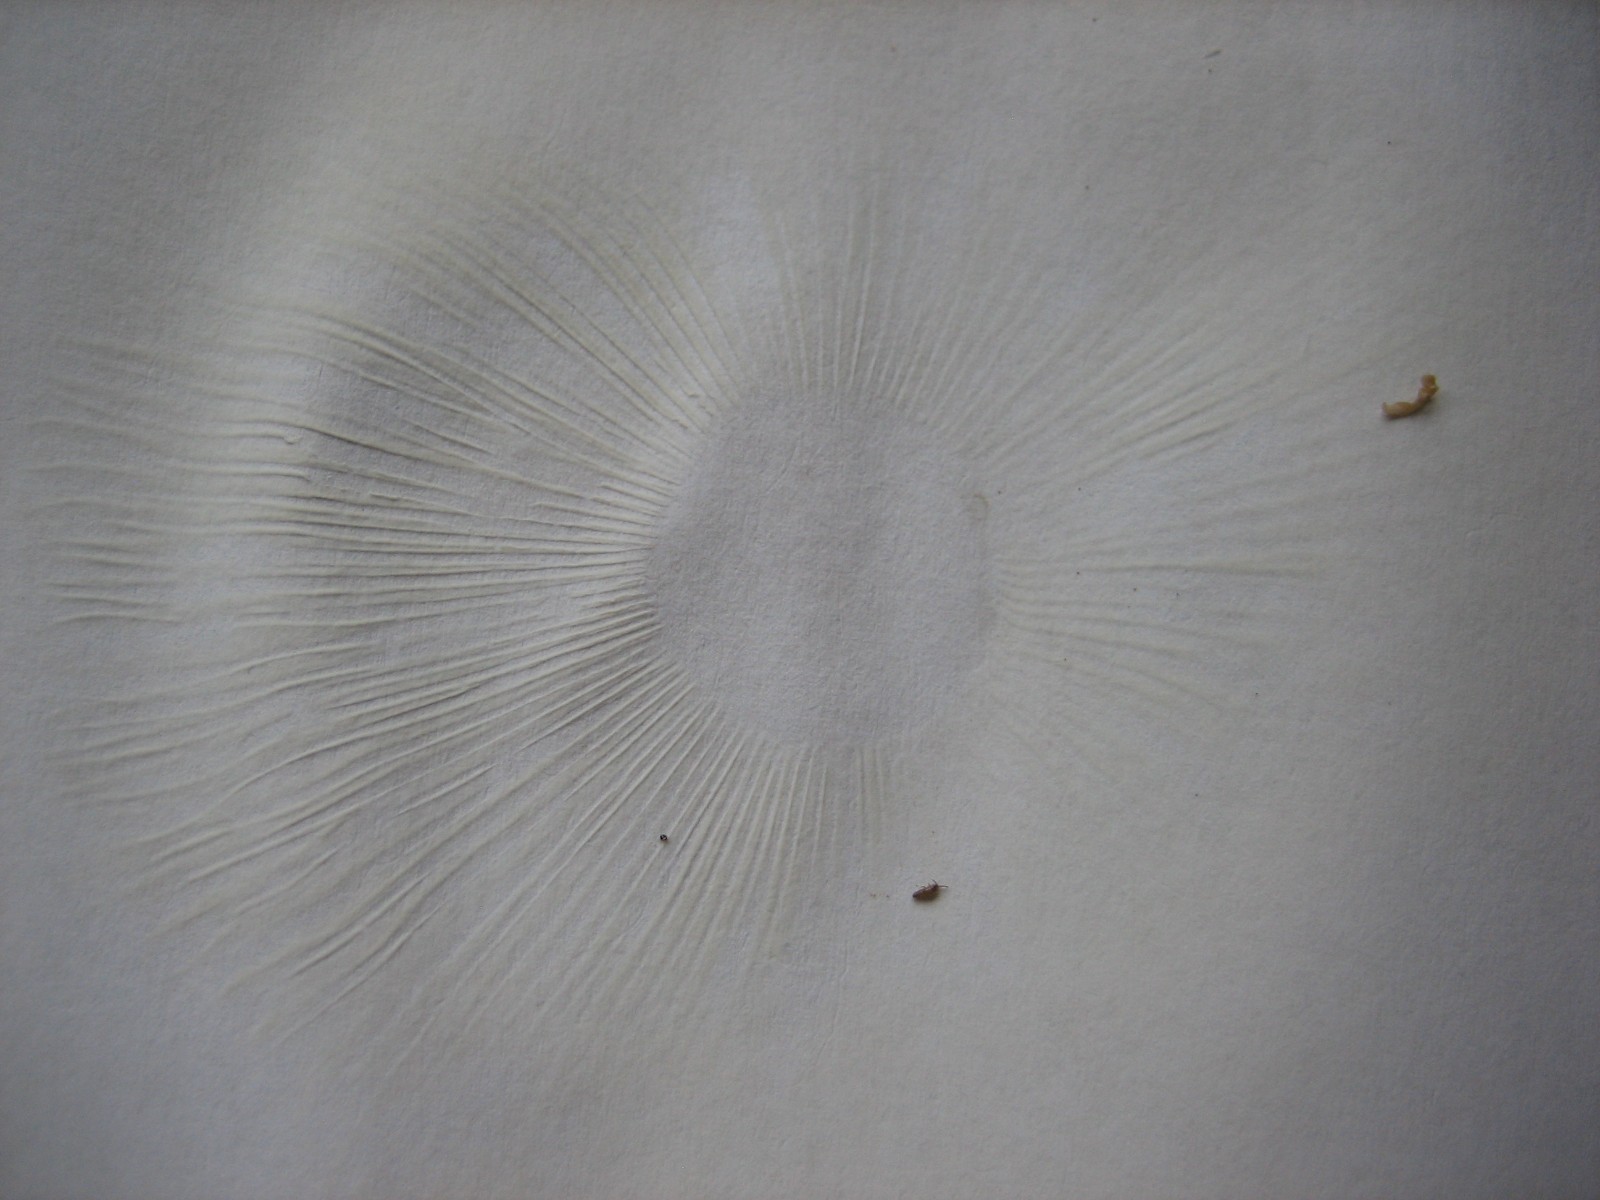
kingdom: Fungi
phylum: Basidiomycota
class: Agaricomycetes
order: Russulales
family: Russulaceae
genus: Russula
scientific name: Russula fellea
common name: galde-skørhat
